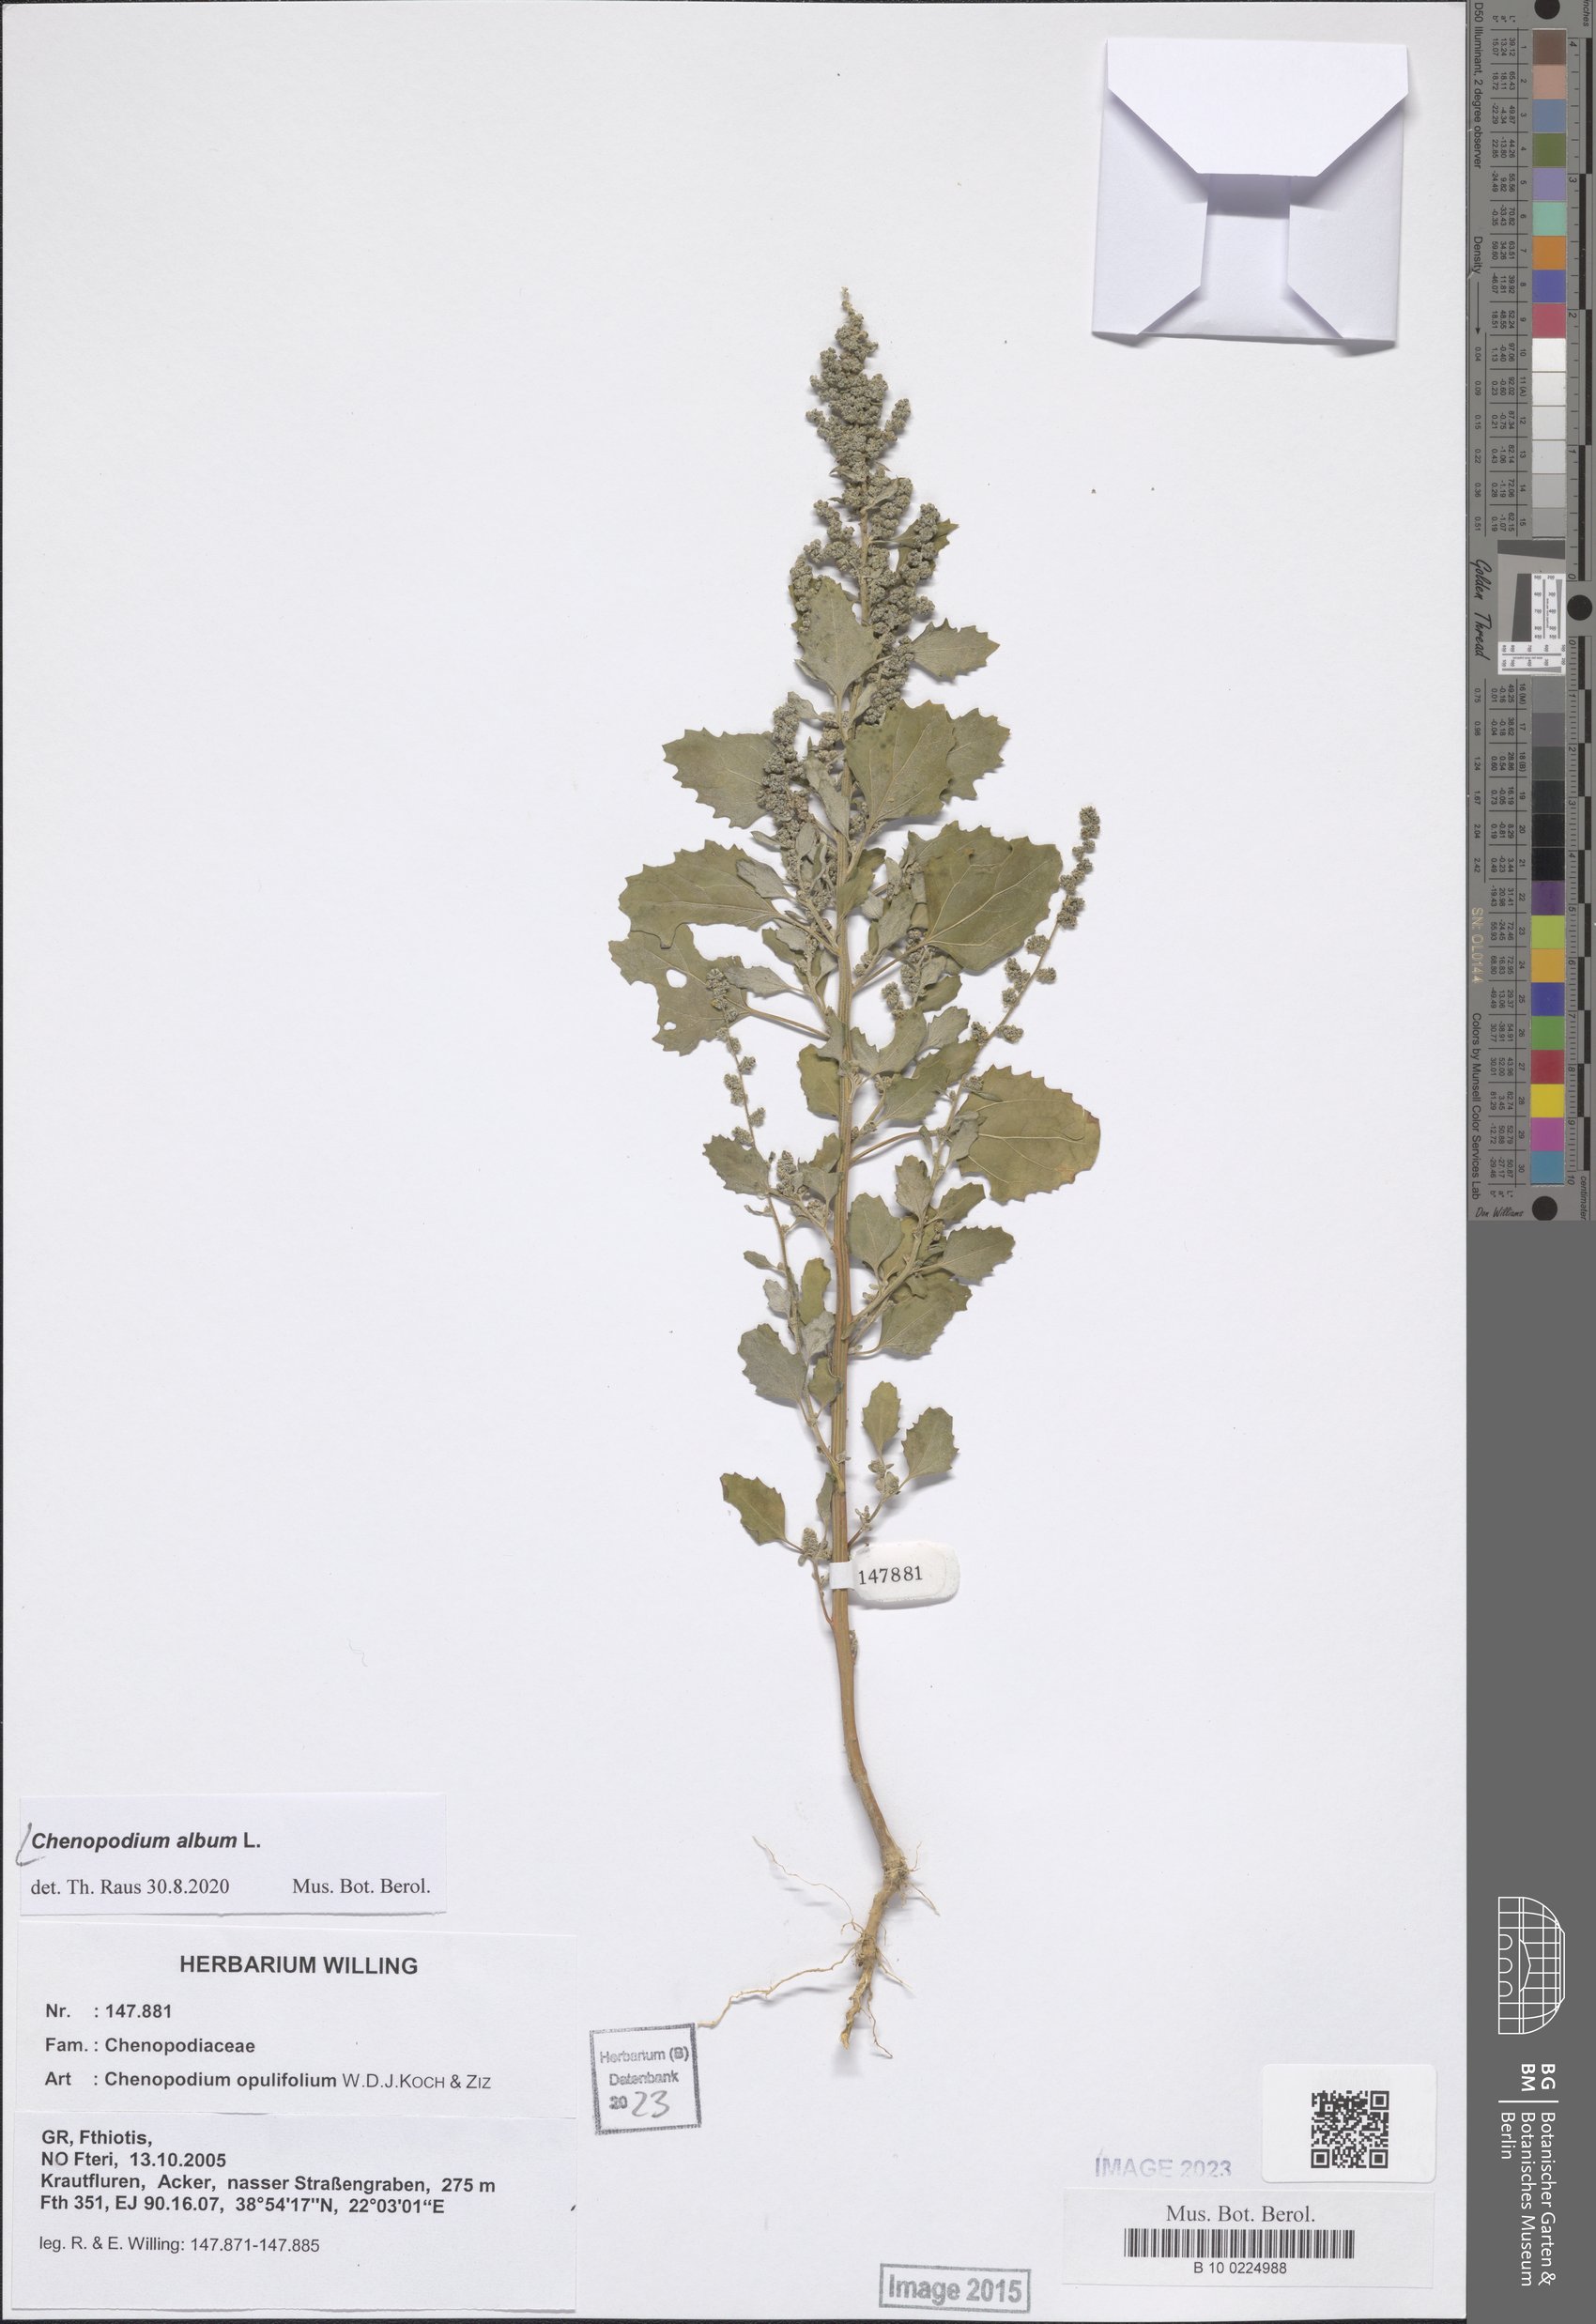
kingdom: Plantae
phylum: Tracheophyta
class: Magnoliopsida
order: Caryophyllales
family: Amaranthaceae
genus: Chenopodium
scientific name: Chenopodium album
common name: Fat-hen
